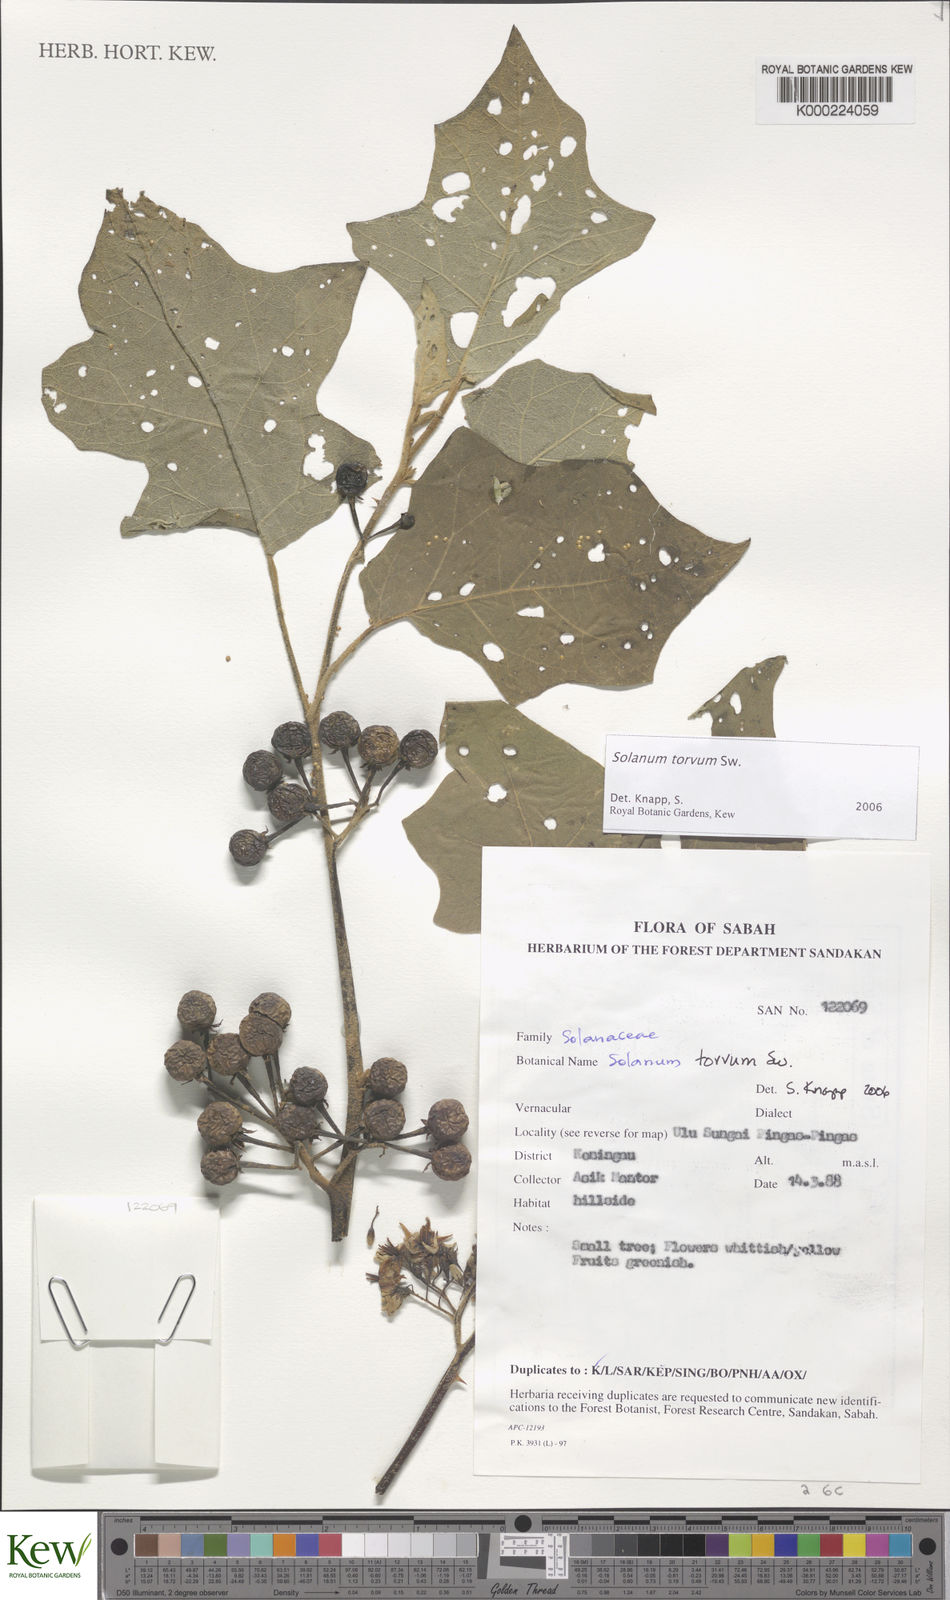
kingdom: Plantae
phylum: Tracheophyta
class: Magnoliopsida
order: Solanales
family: Solanaceae
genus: Solanum
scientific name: Solanum torvum
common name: Turkey berry
